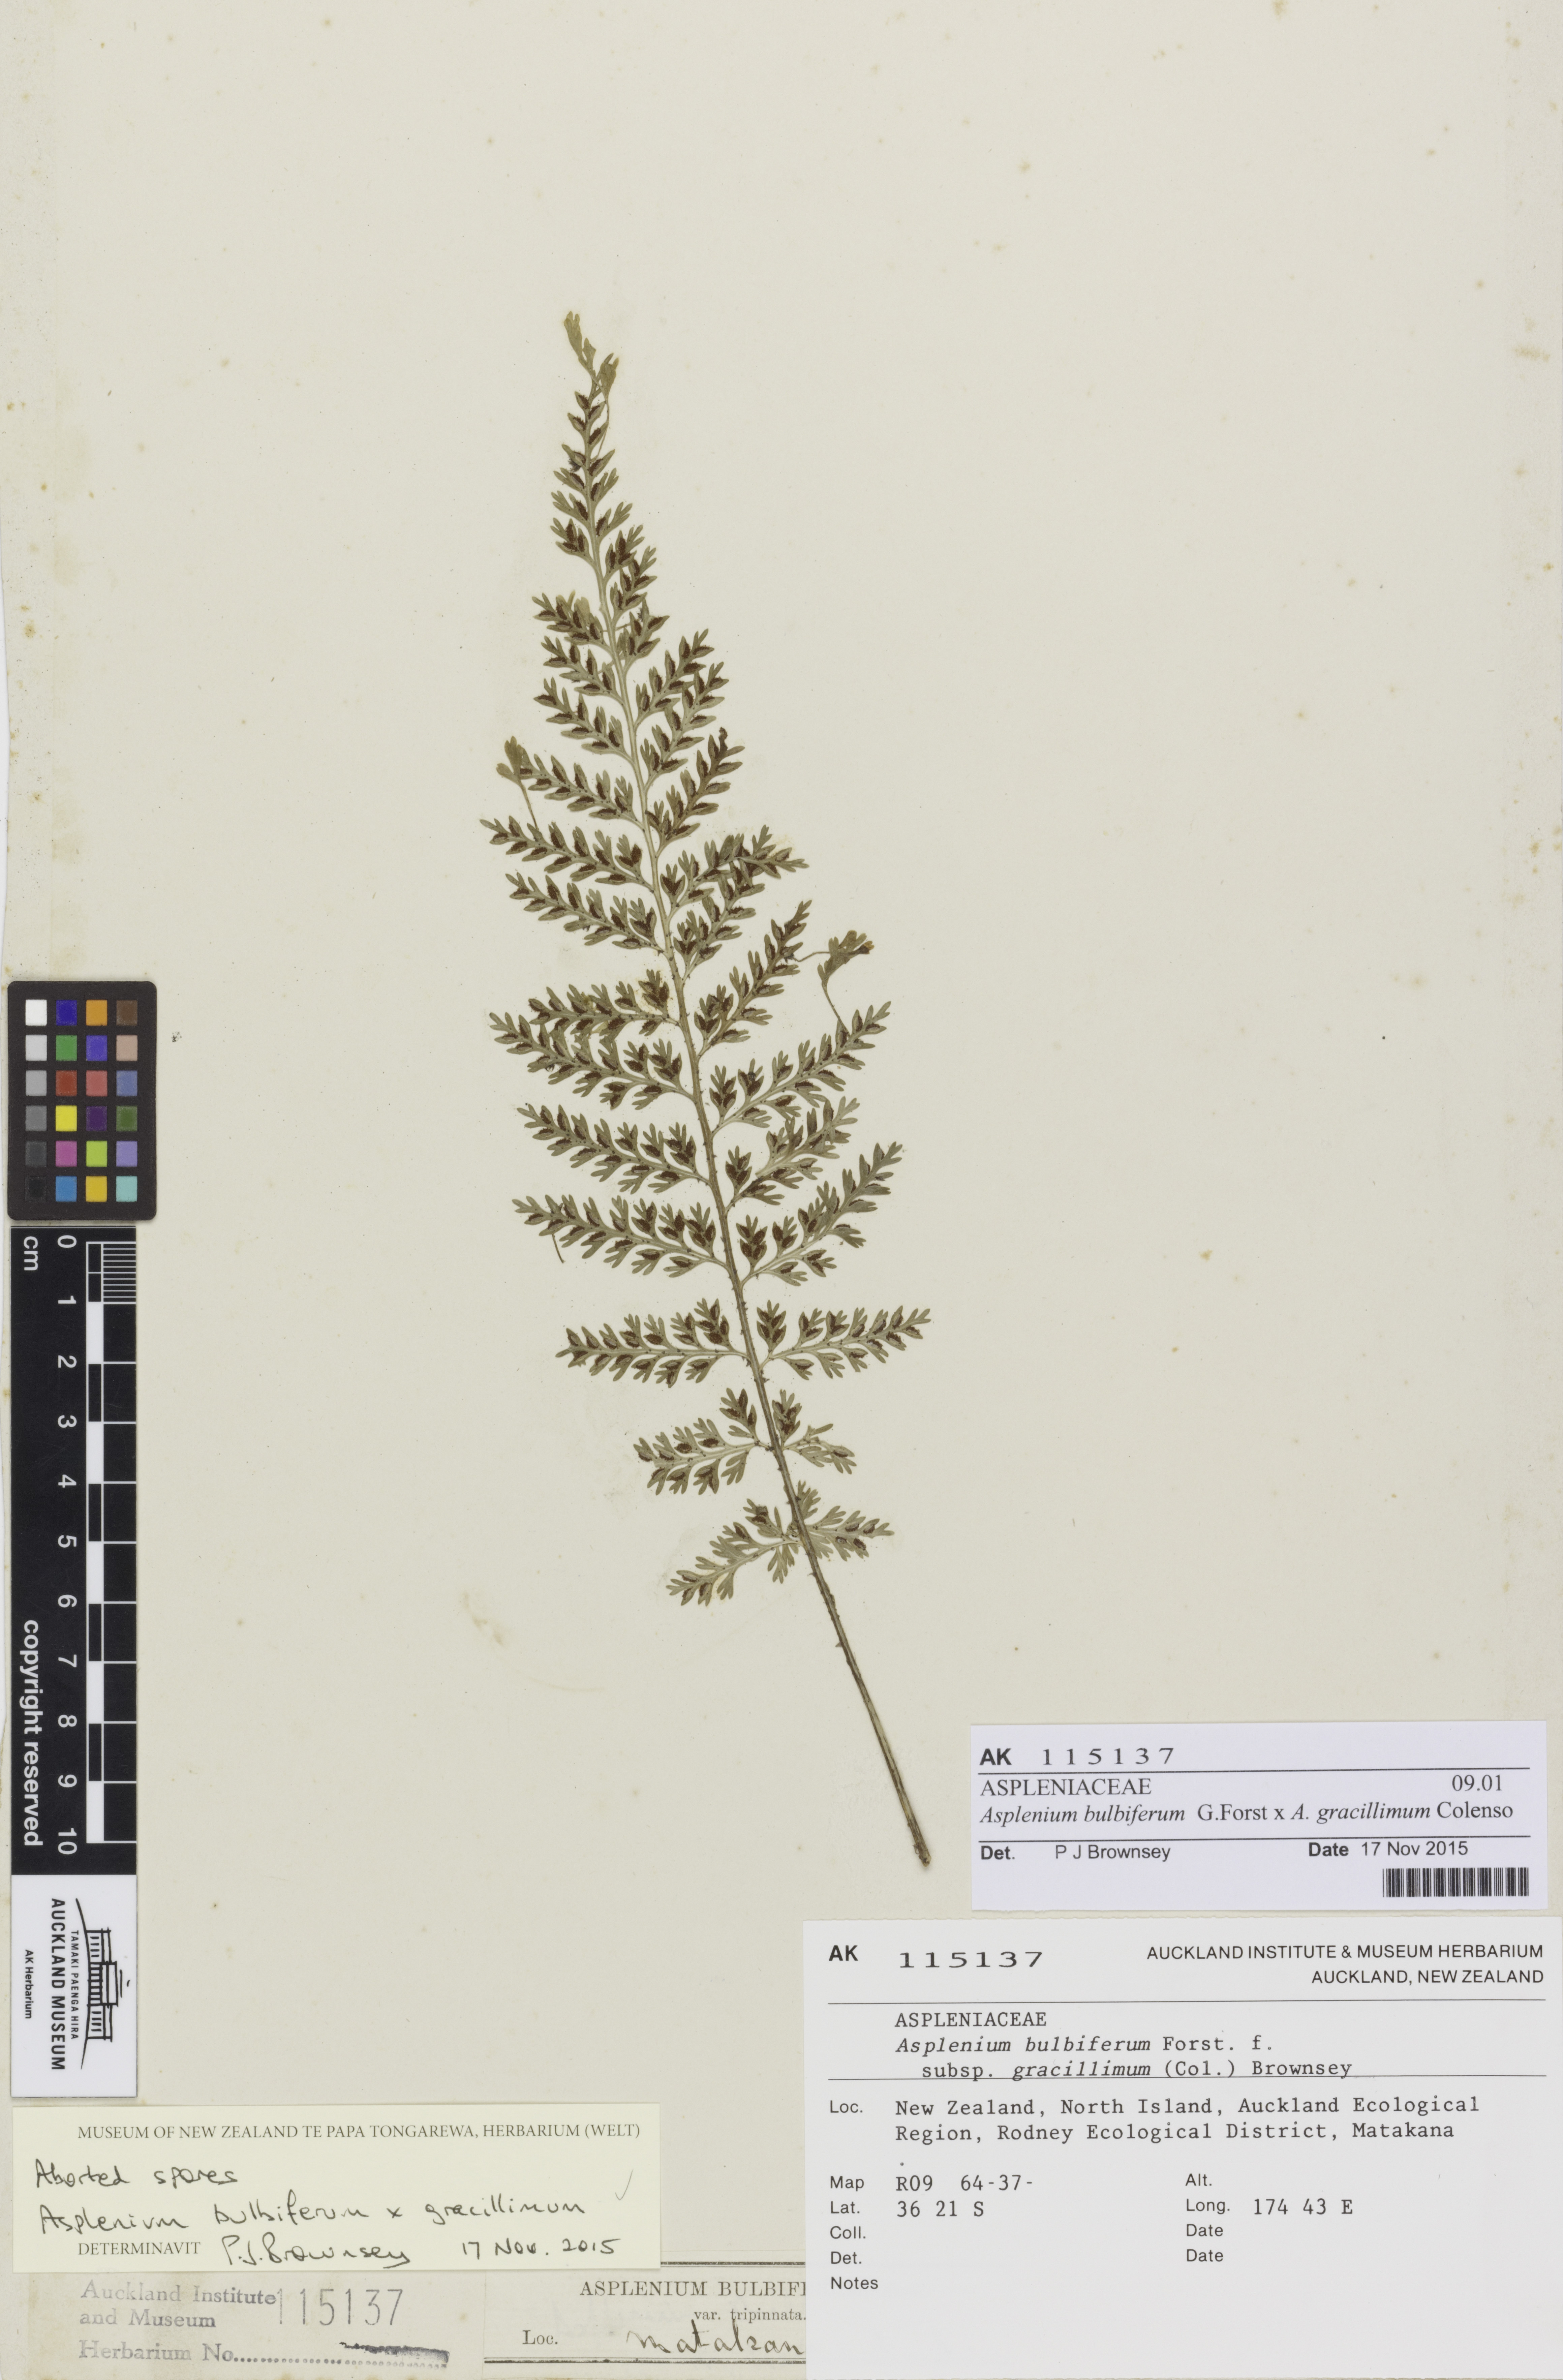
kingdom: Plantae
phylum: Tracheophyta
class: Polypodiopsida
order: Polypodiales
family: Aspleniaceae
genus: Asplenium
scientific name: Asplenium
